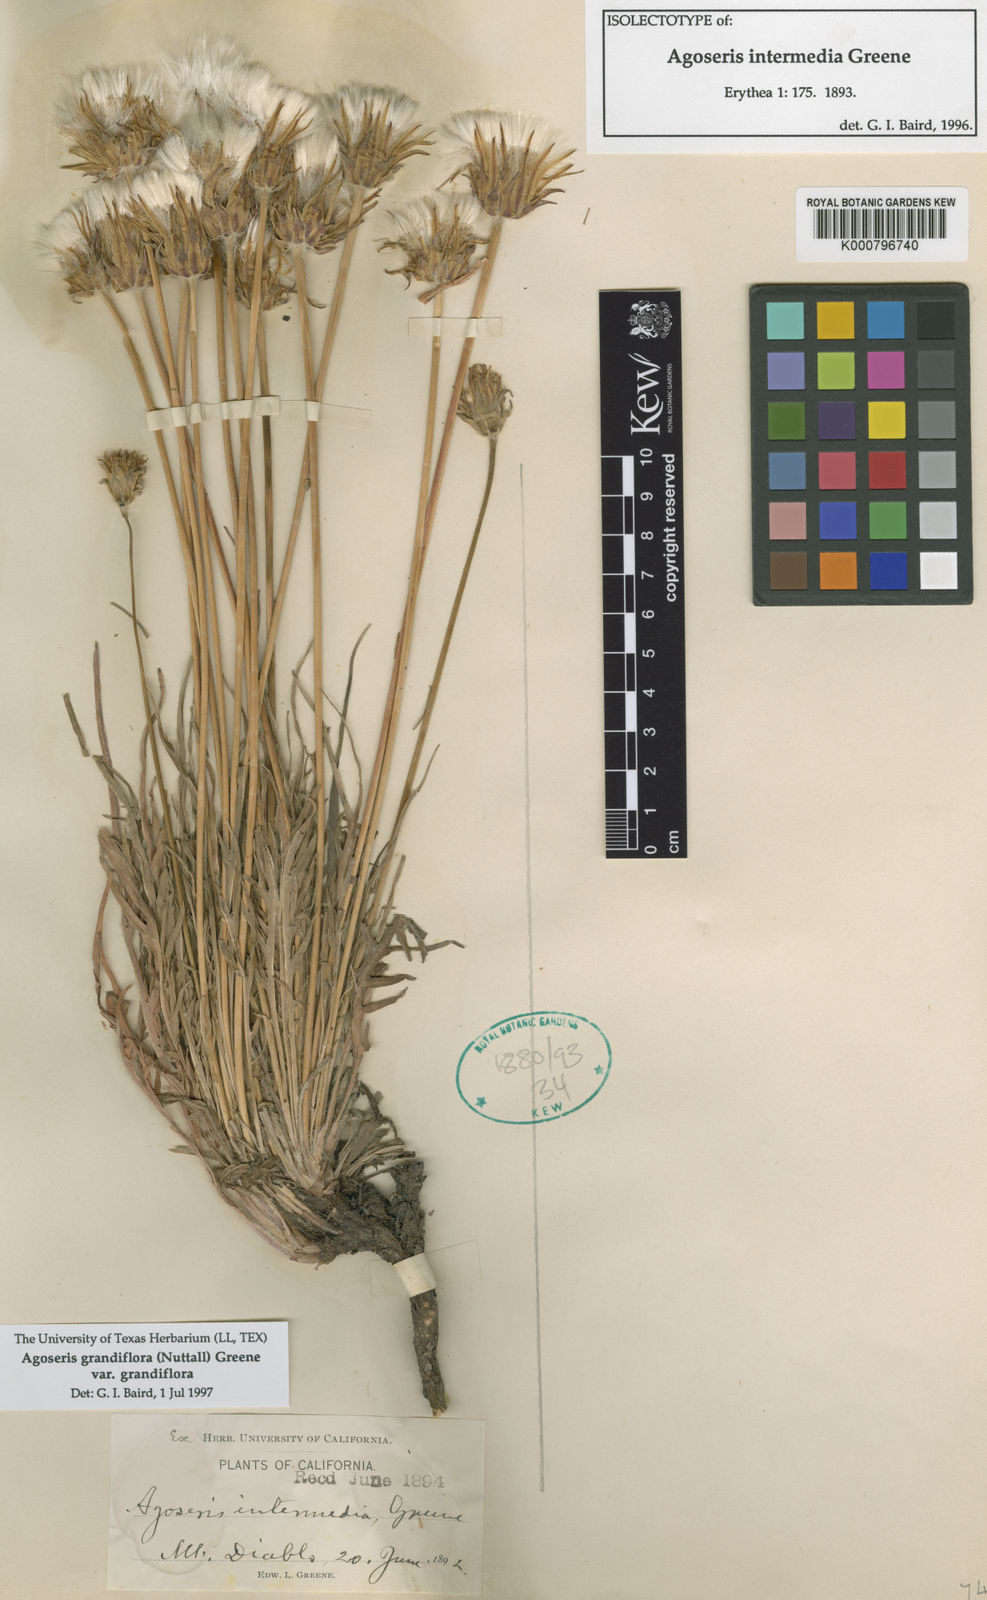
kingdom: Plantae
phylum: Tracheophyta
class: Magnoliopsida
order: Asterales
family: Asteraceae
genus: Agoseris
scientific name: Agoseris grandiflora
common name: Grassland agoseris
